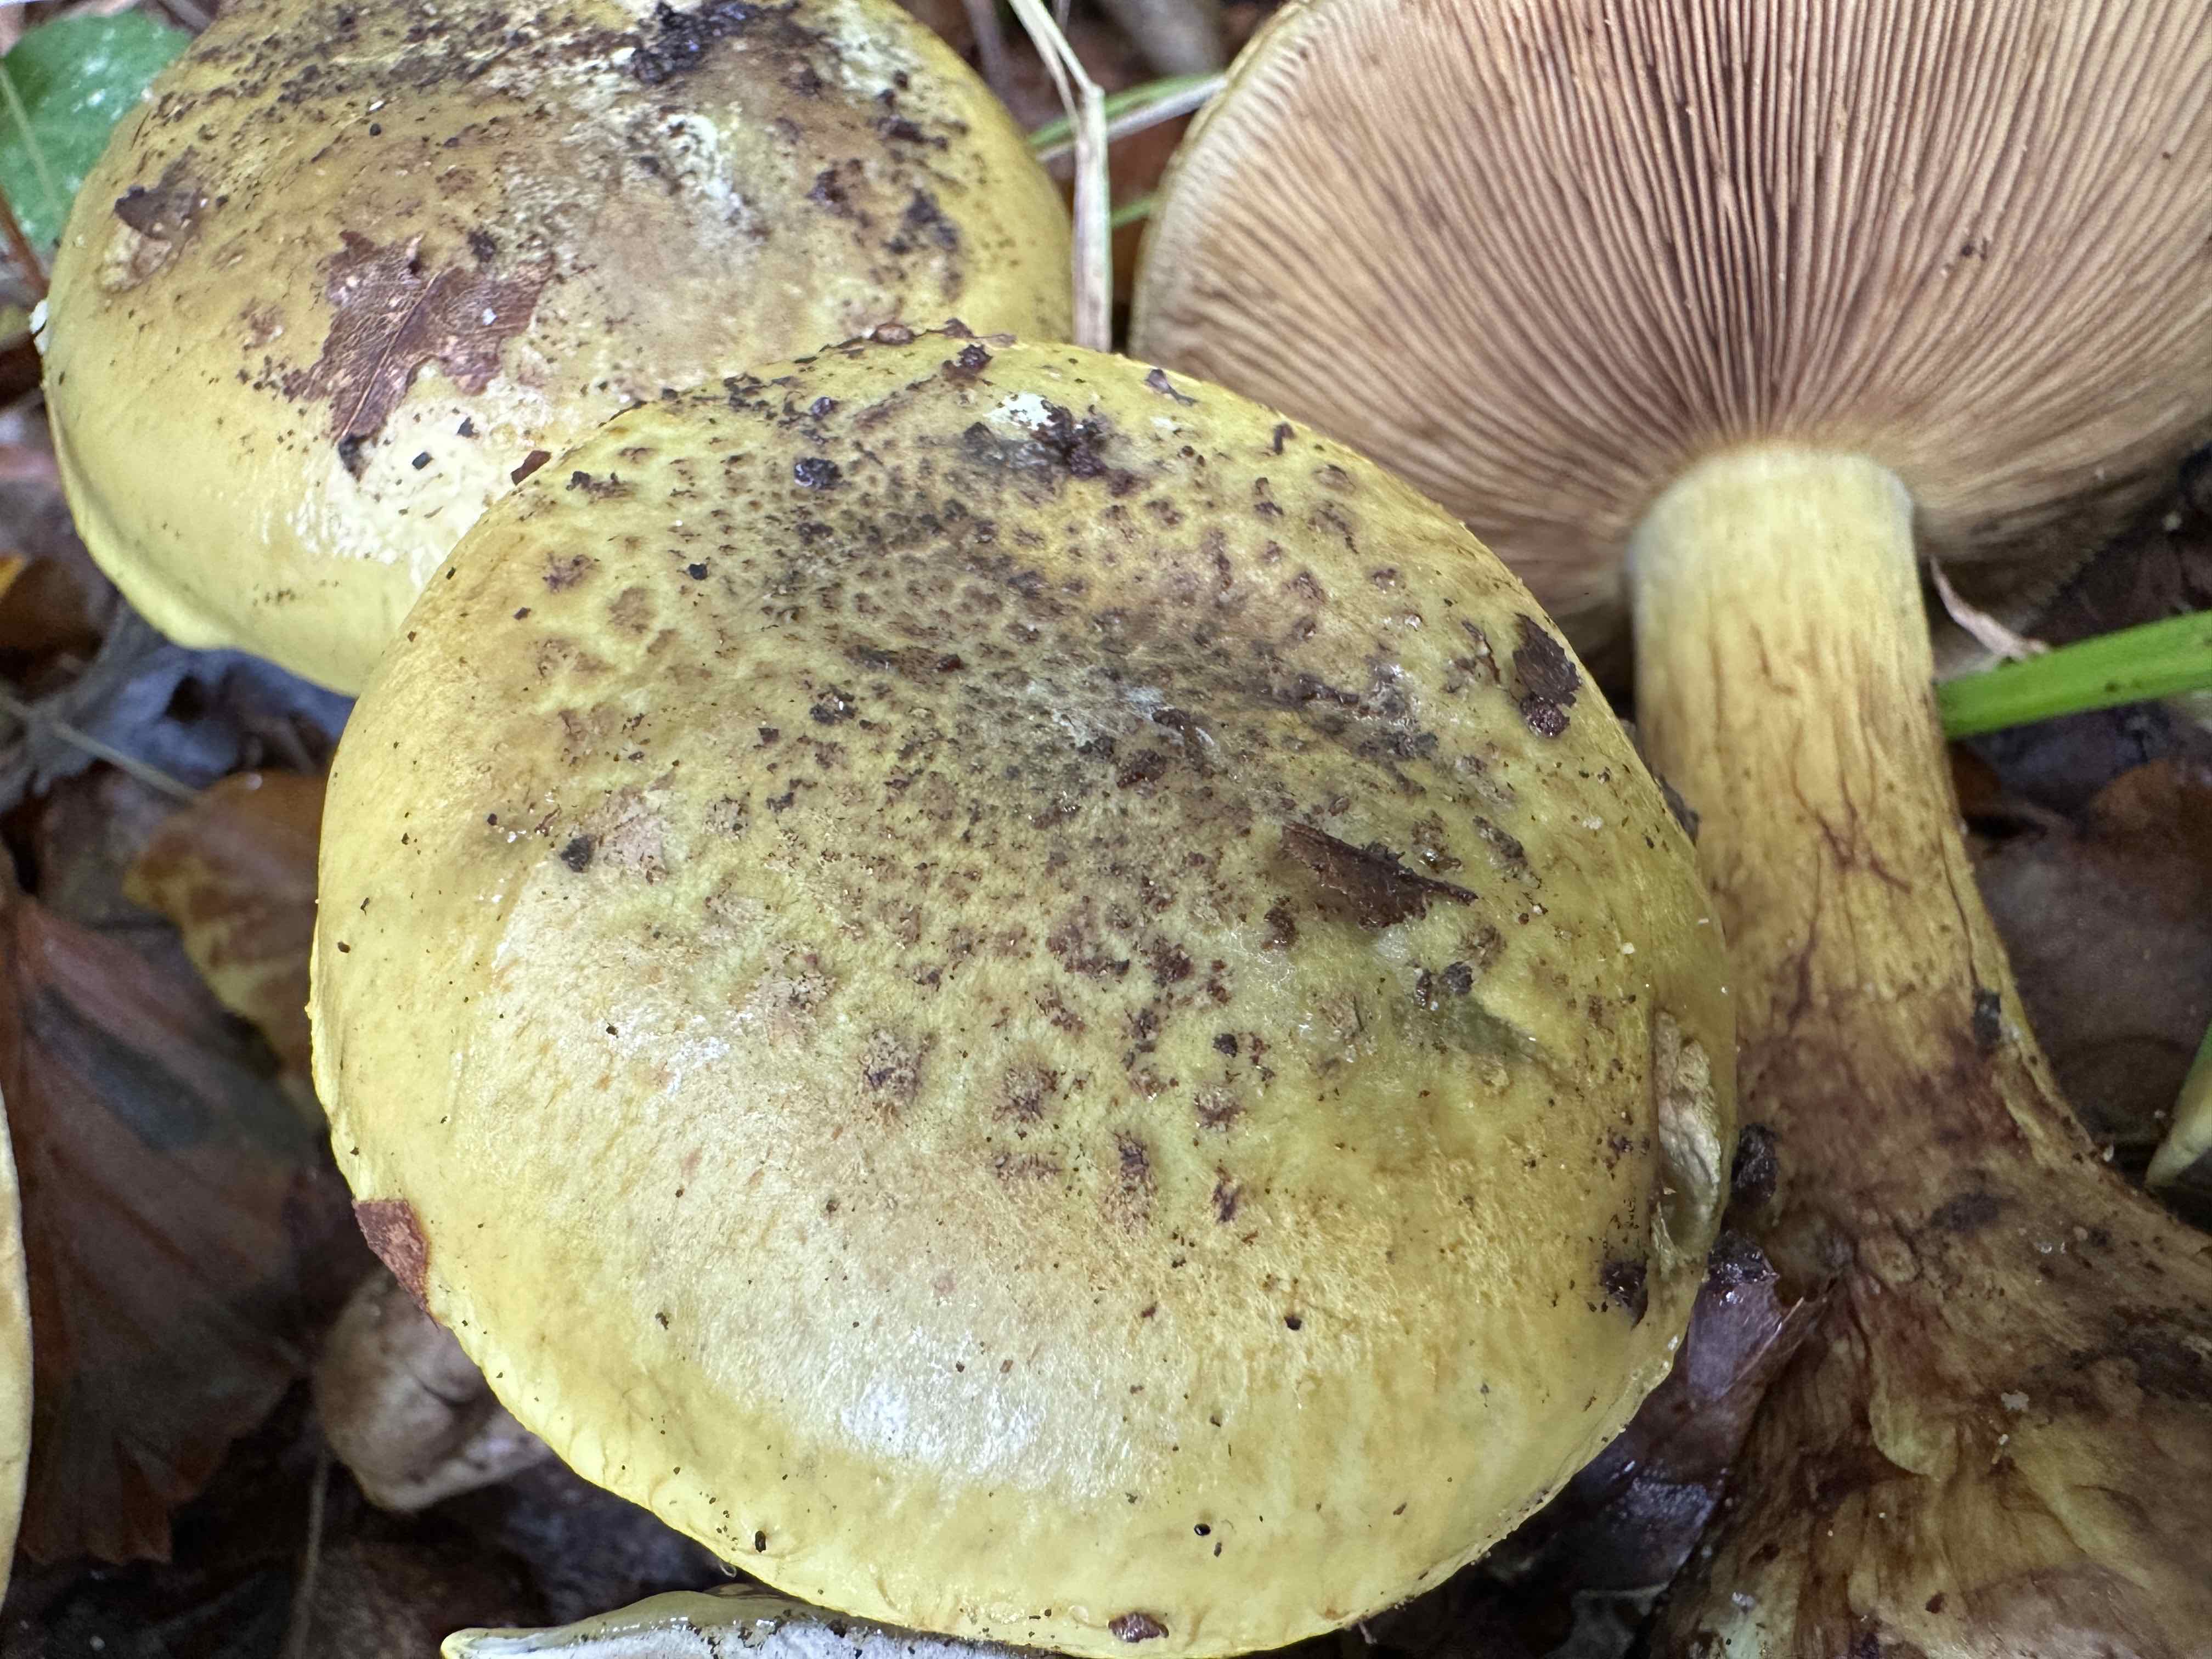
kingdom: Fungi
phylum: Basidiomycota
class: Agaricomycetes
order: Agaricales
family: Cortinariaceae
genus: Calonarius
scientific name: Calonarius odoratus
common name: krydret slørhat
